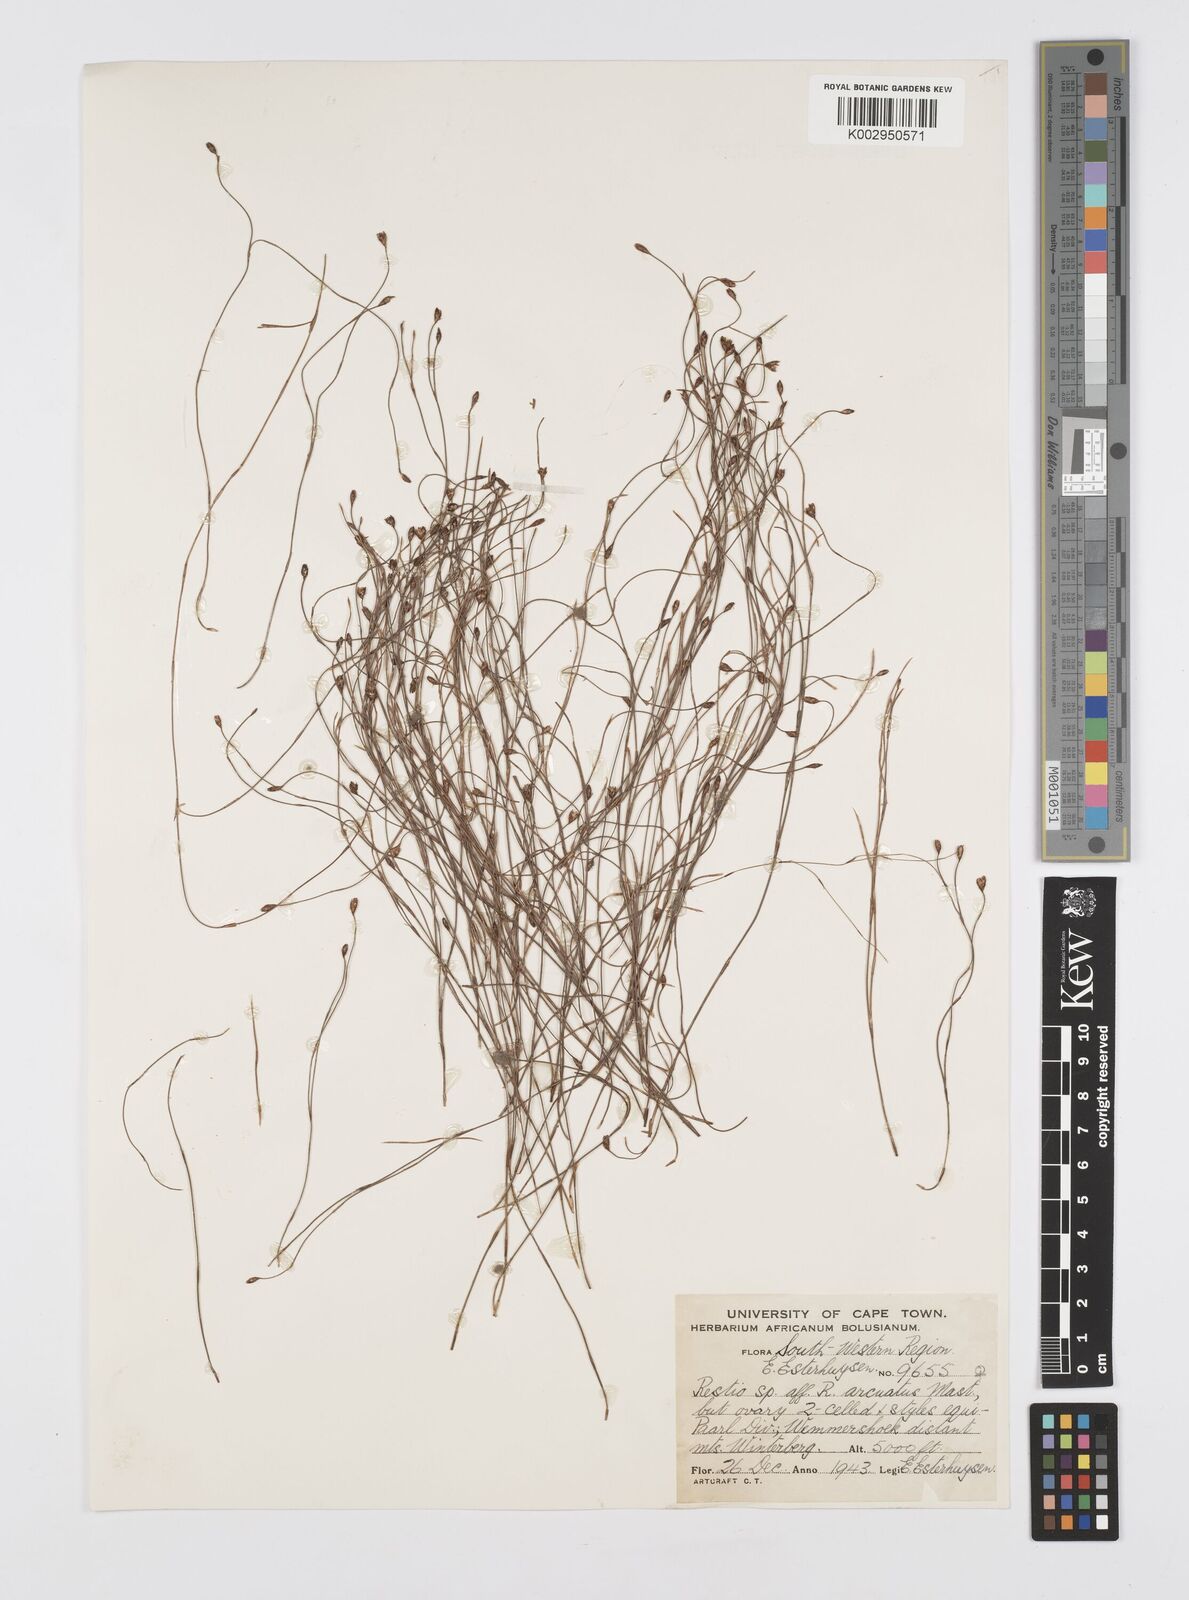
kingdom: Plantae
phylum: Tracheophyta
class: Liliopsida
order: Poales
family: Restionaceae
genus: Restio
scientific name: Restio arcuatus
